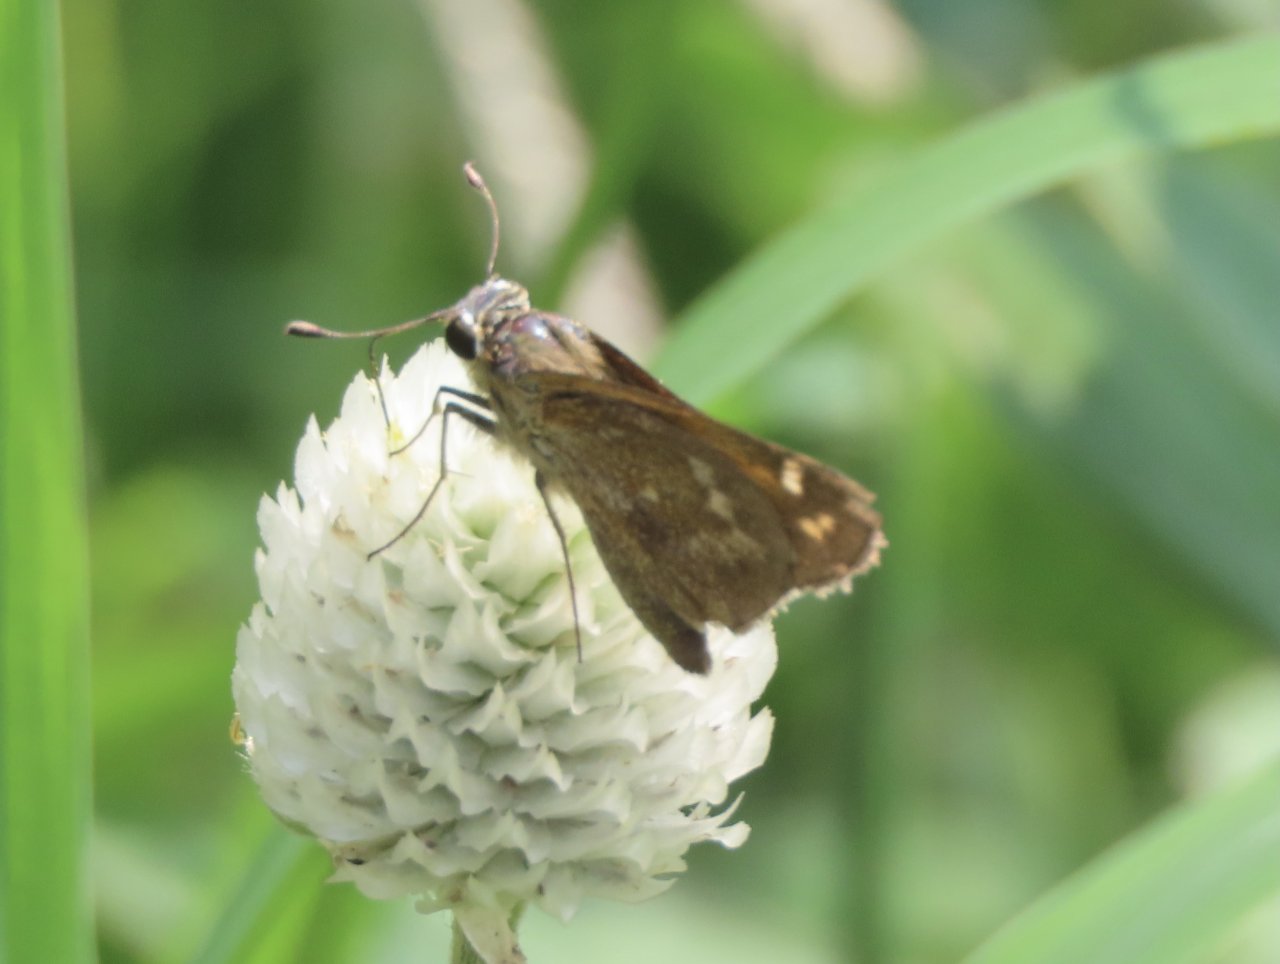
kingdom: Animalia
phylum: Arthropoda
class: Insecta
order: Lepidoptera
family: Hesperiidae
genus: Vernia
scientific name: Vernia verna
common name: Little Glassywing
